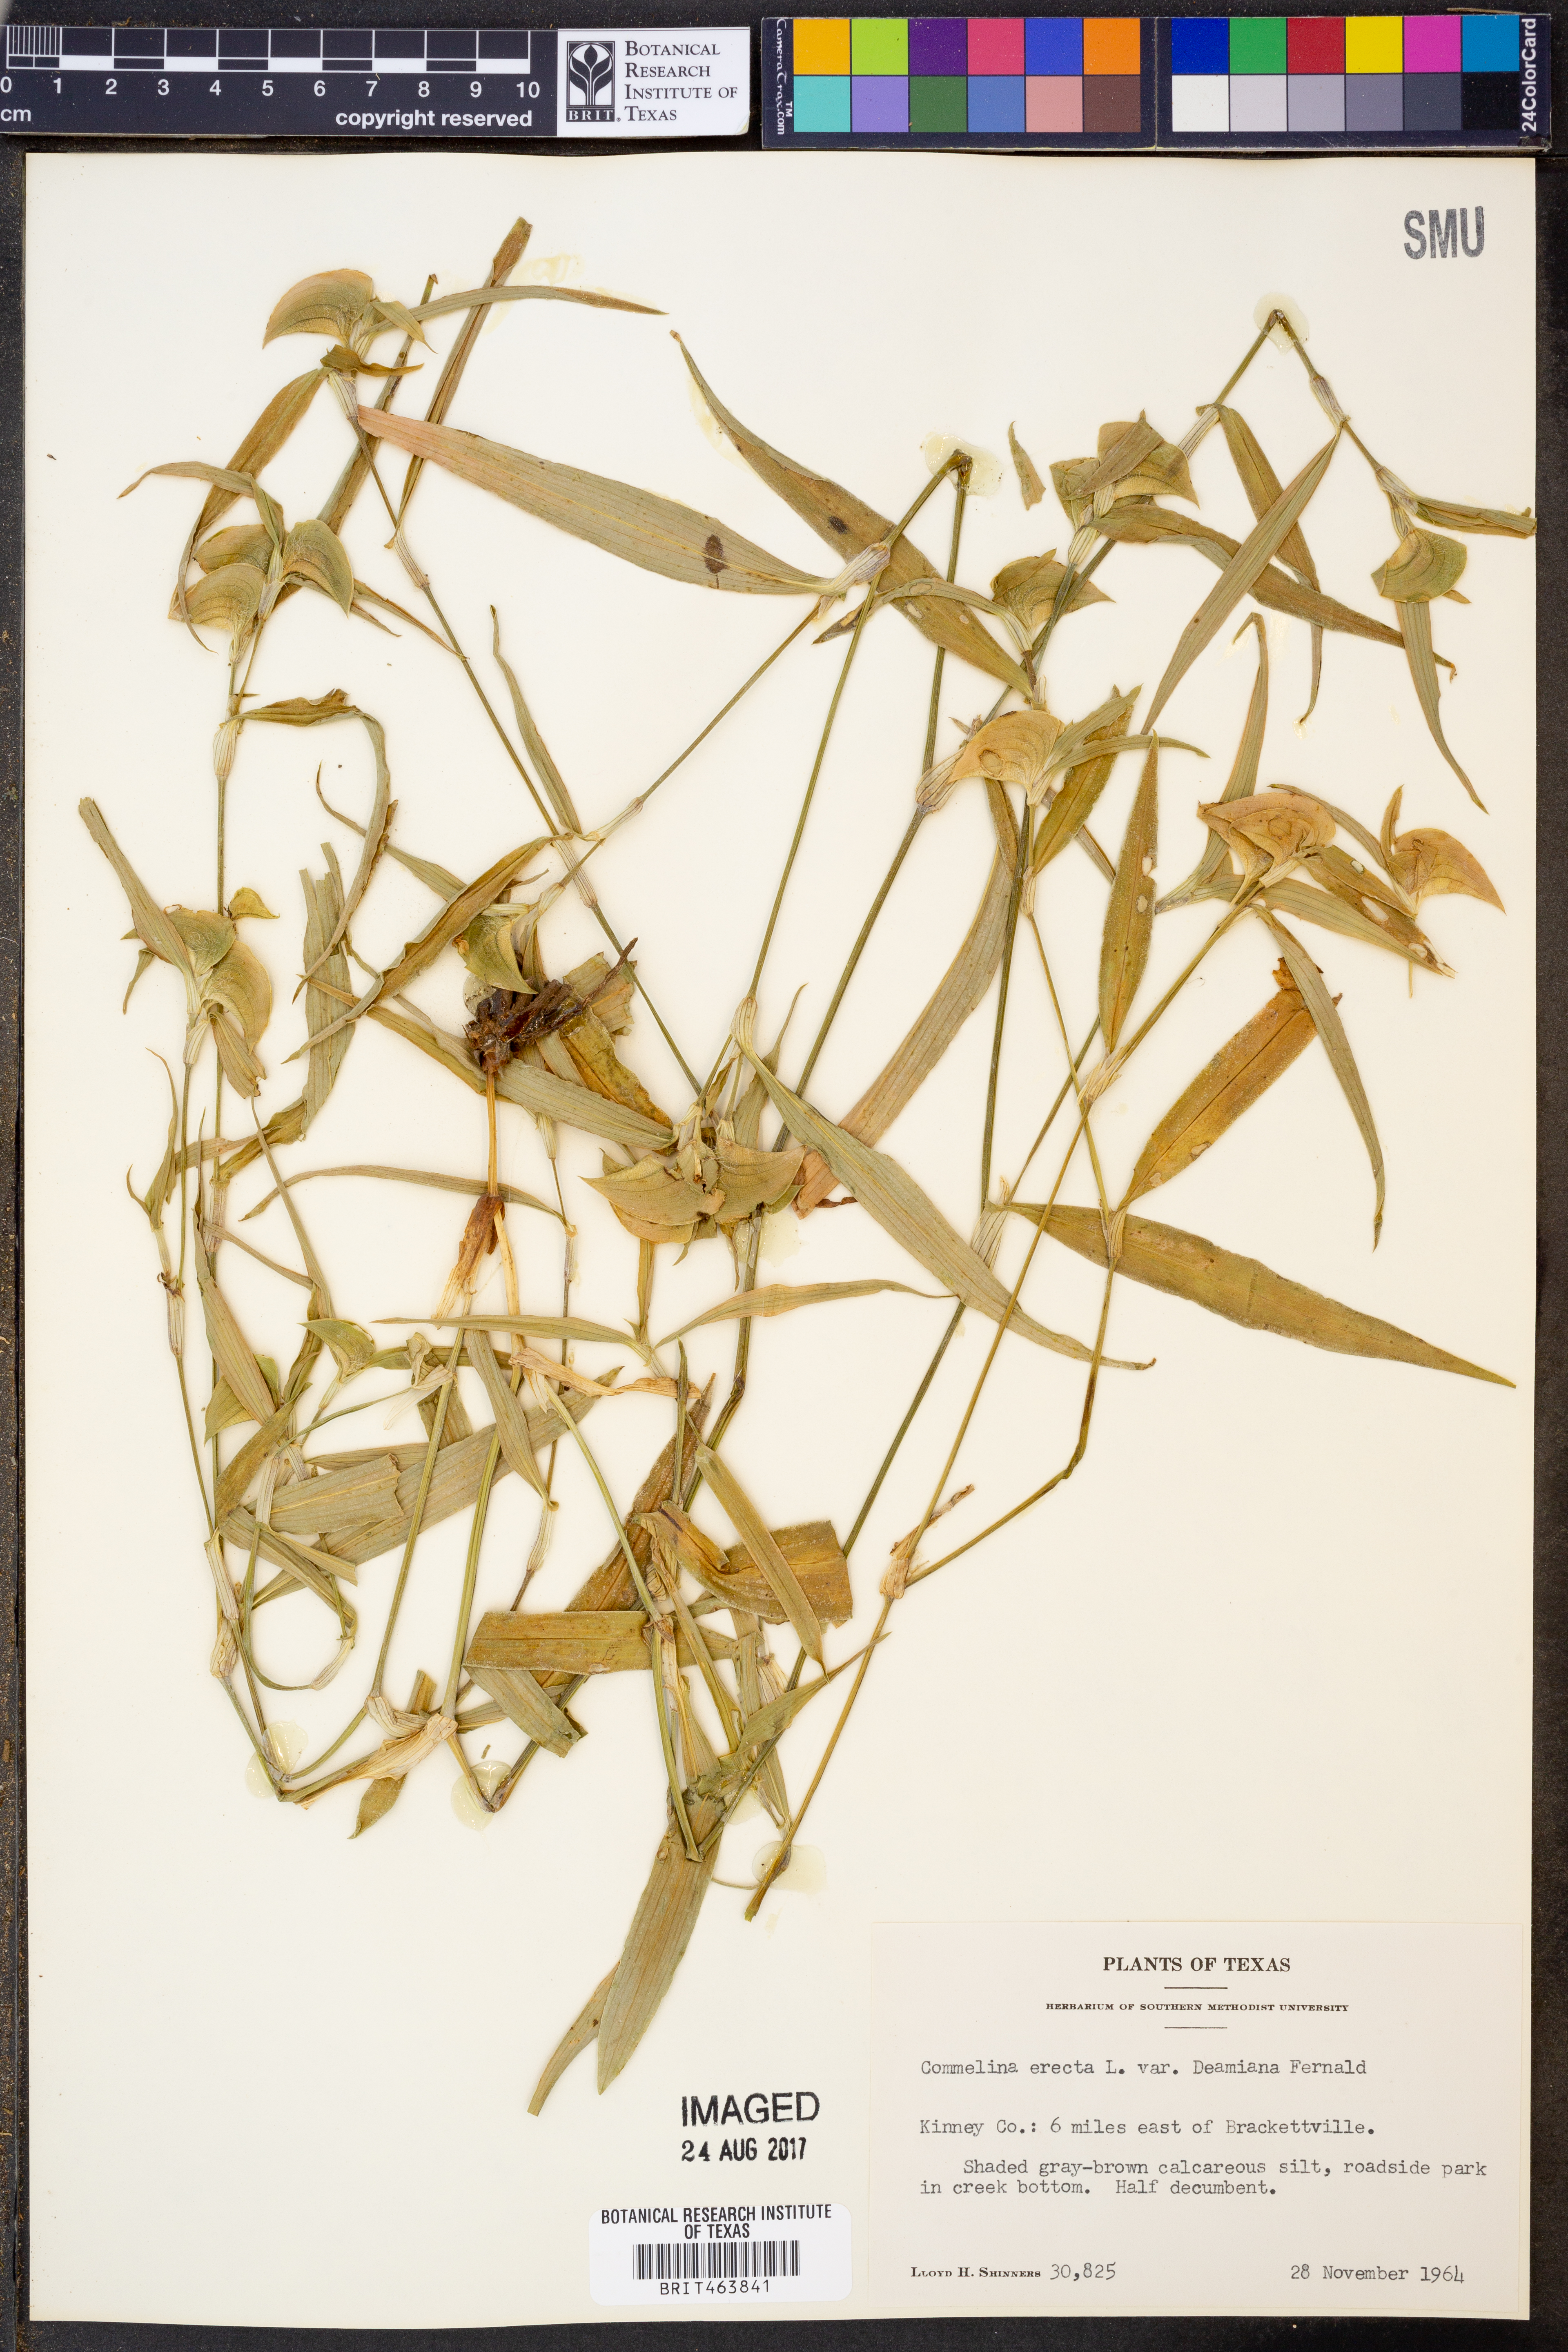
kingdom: Plantae
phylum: Tracheophyta
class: Liliopsida
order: Commelinales
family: Commelinaceae
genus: Commelina
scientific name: Commelina erecta
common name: Blousel blommetjie
